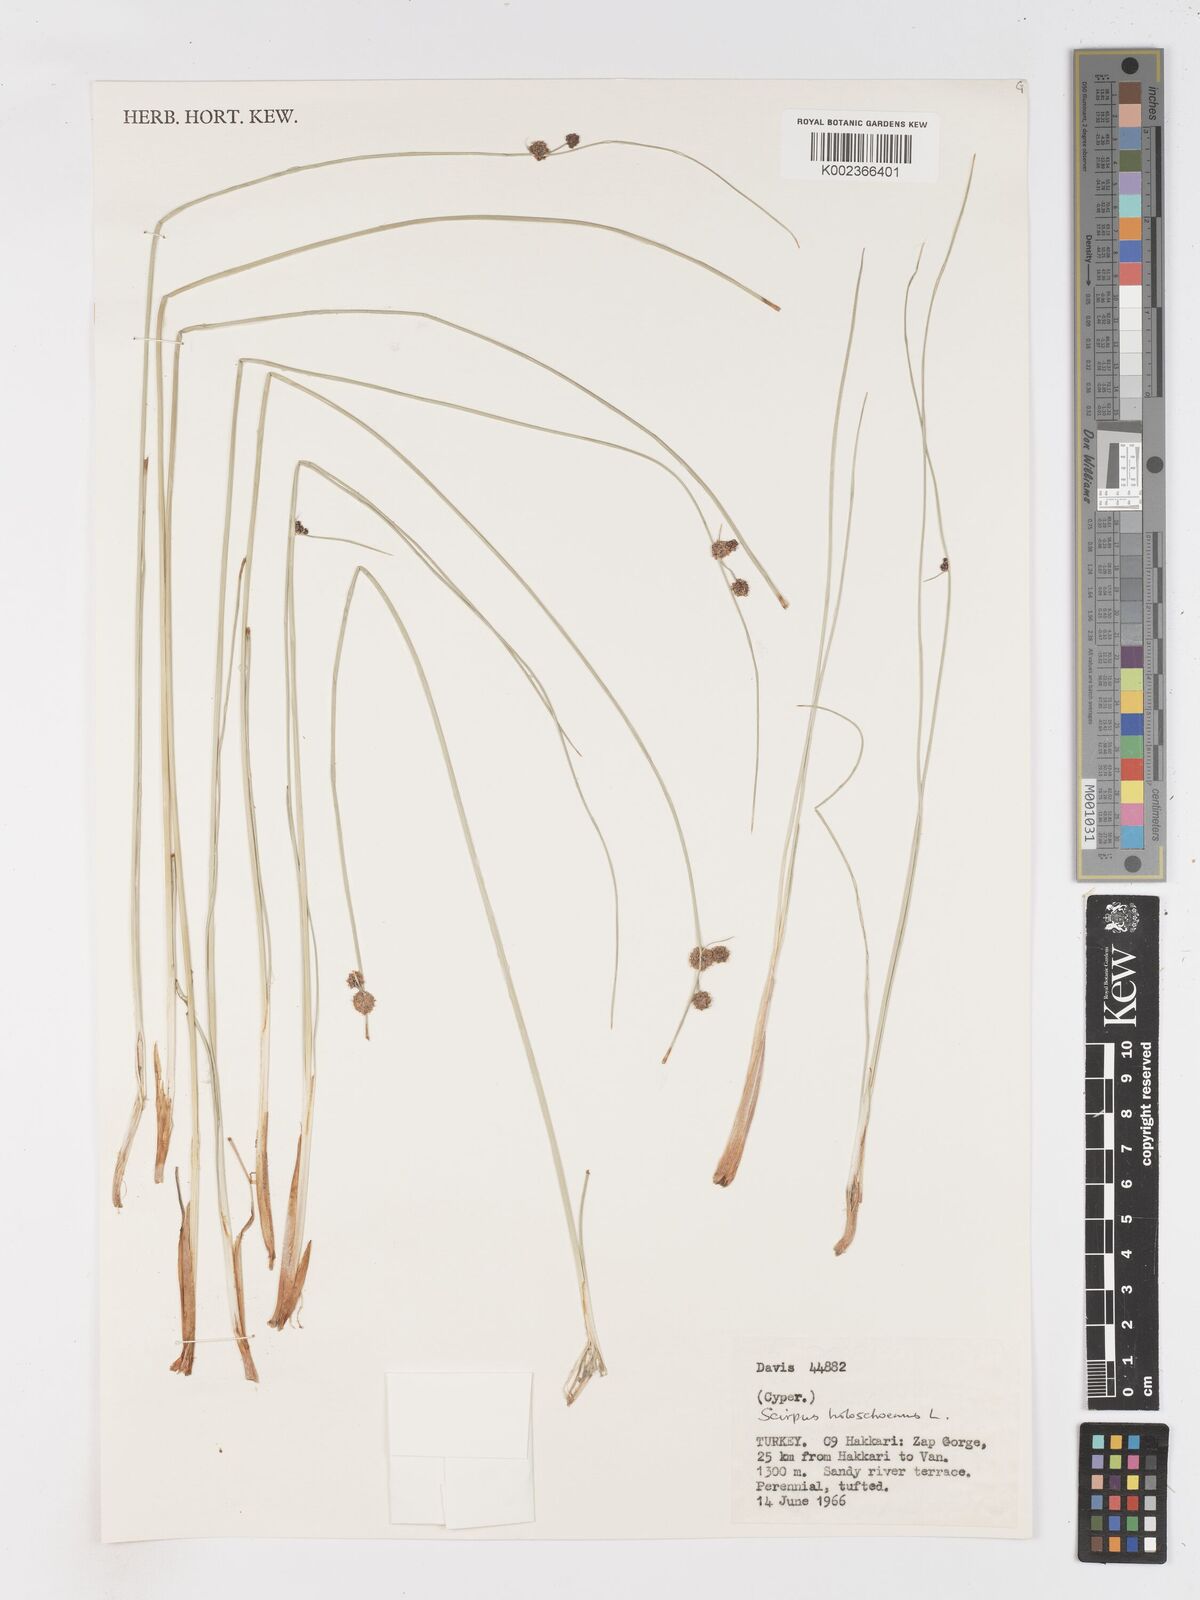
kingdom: Plantae
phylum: Tracheophyta
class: Liliopsida
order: Poales
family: Cyperaceae
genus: Scirpoides
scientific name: Scirpoides holoschoenus
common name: Round-headed club-rush
